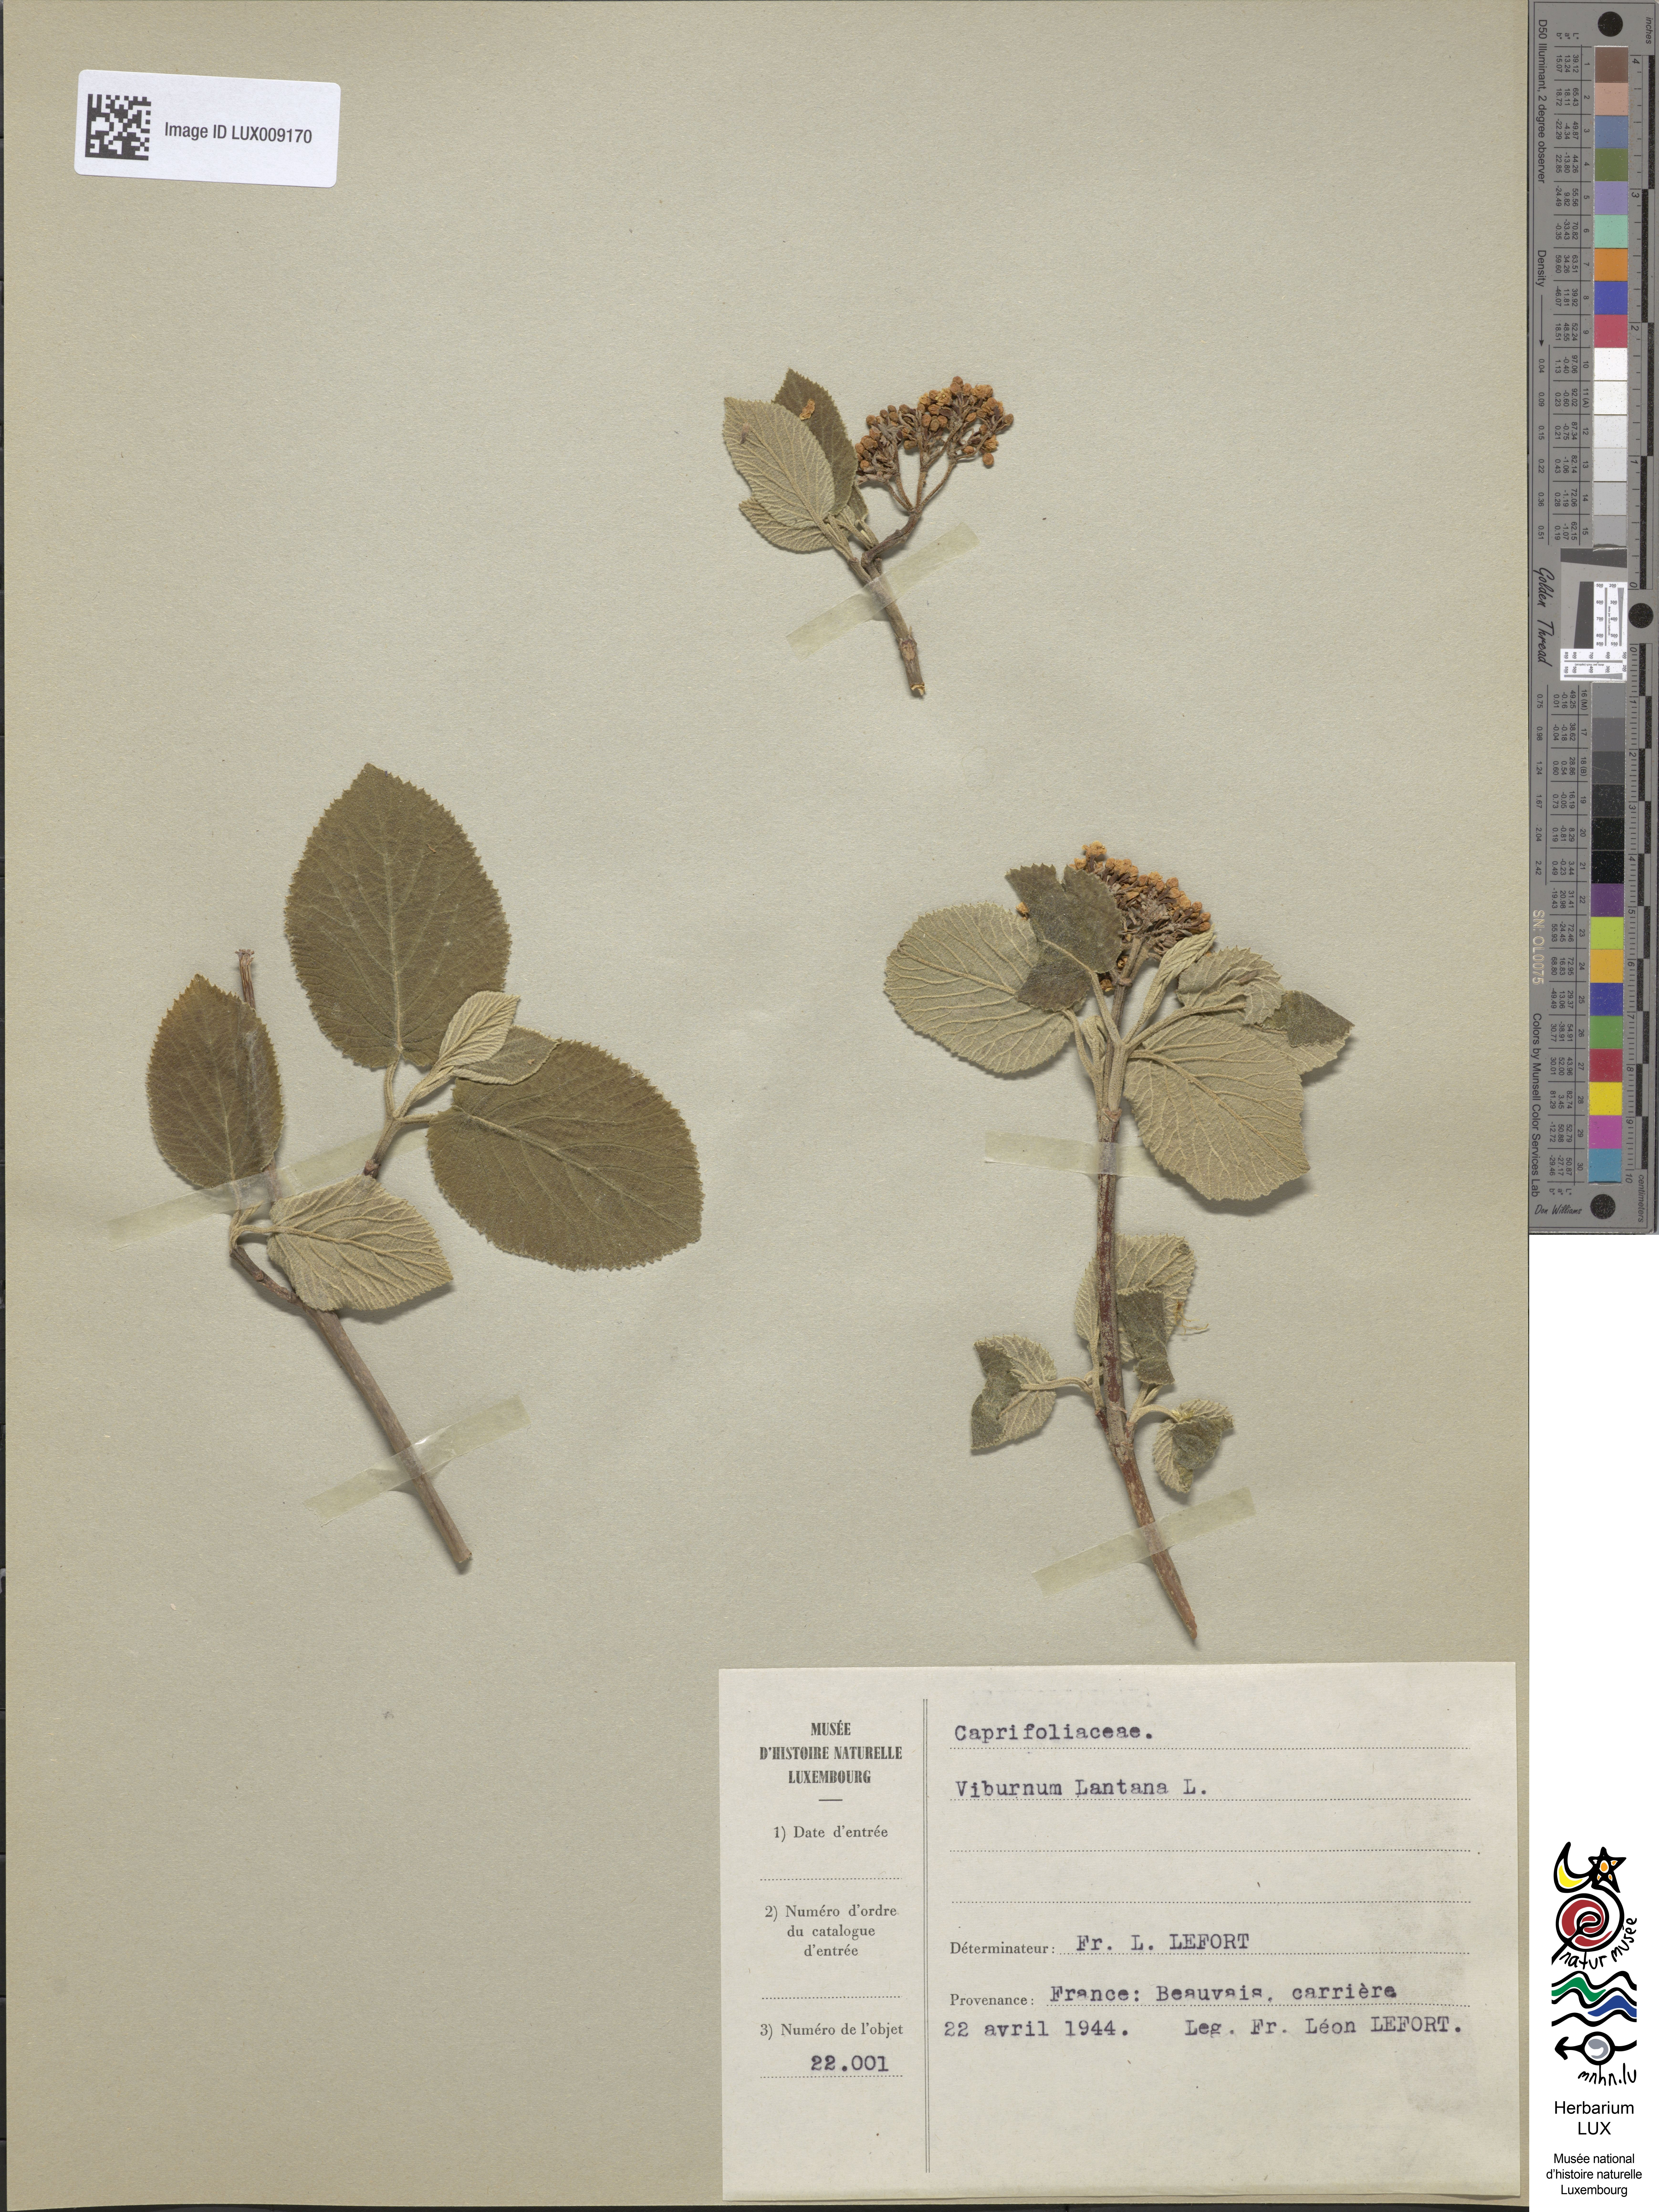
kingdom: Plantae
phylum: Tracheophyta
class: Magnoliopsida
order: Dipsacales
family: Viburnaceae
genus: Viburnum
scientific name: Viburnum lantana
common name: Wayfaring tree
